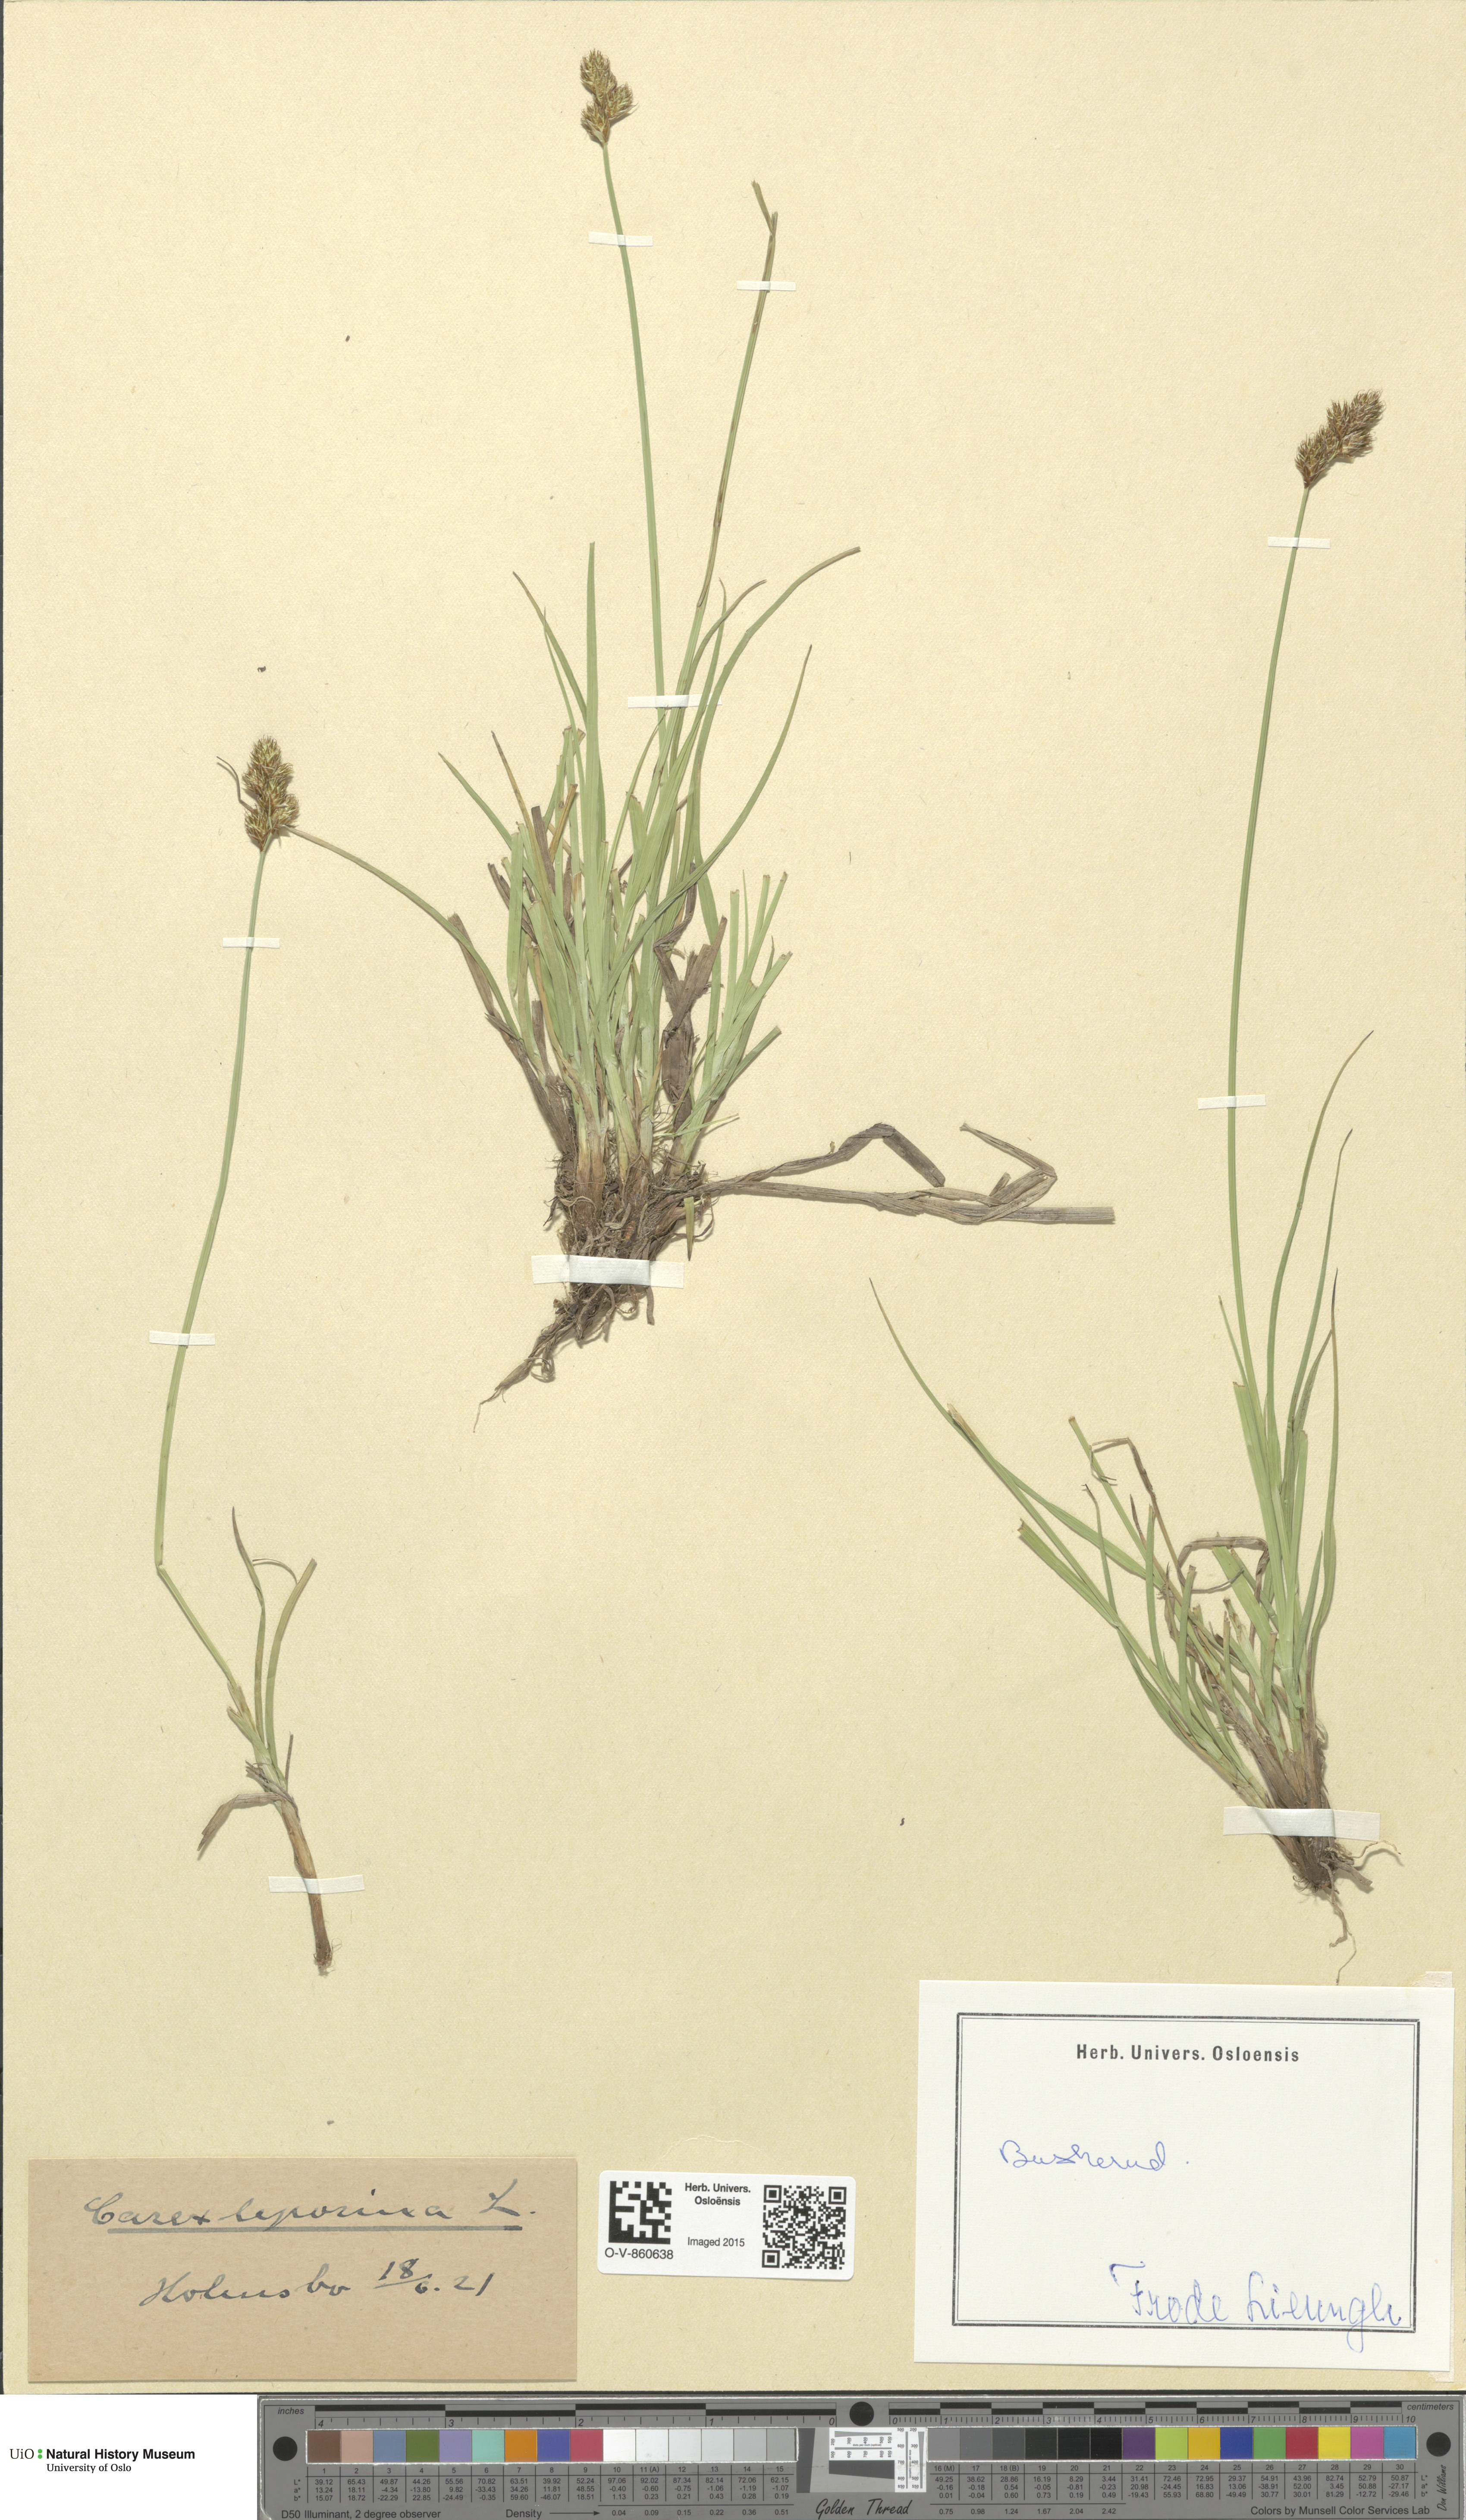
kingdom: Plantae
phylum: Tracheophyta
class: Liliopsida
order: Poales
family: Cyperaceae
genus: Carex
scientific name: Carex leporina
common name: Oval sedge
